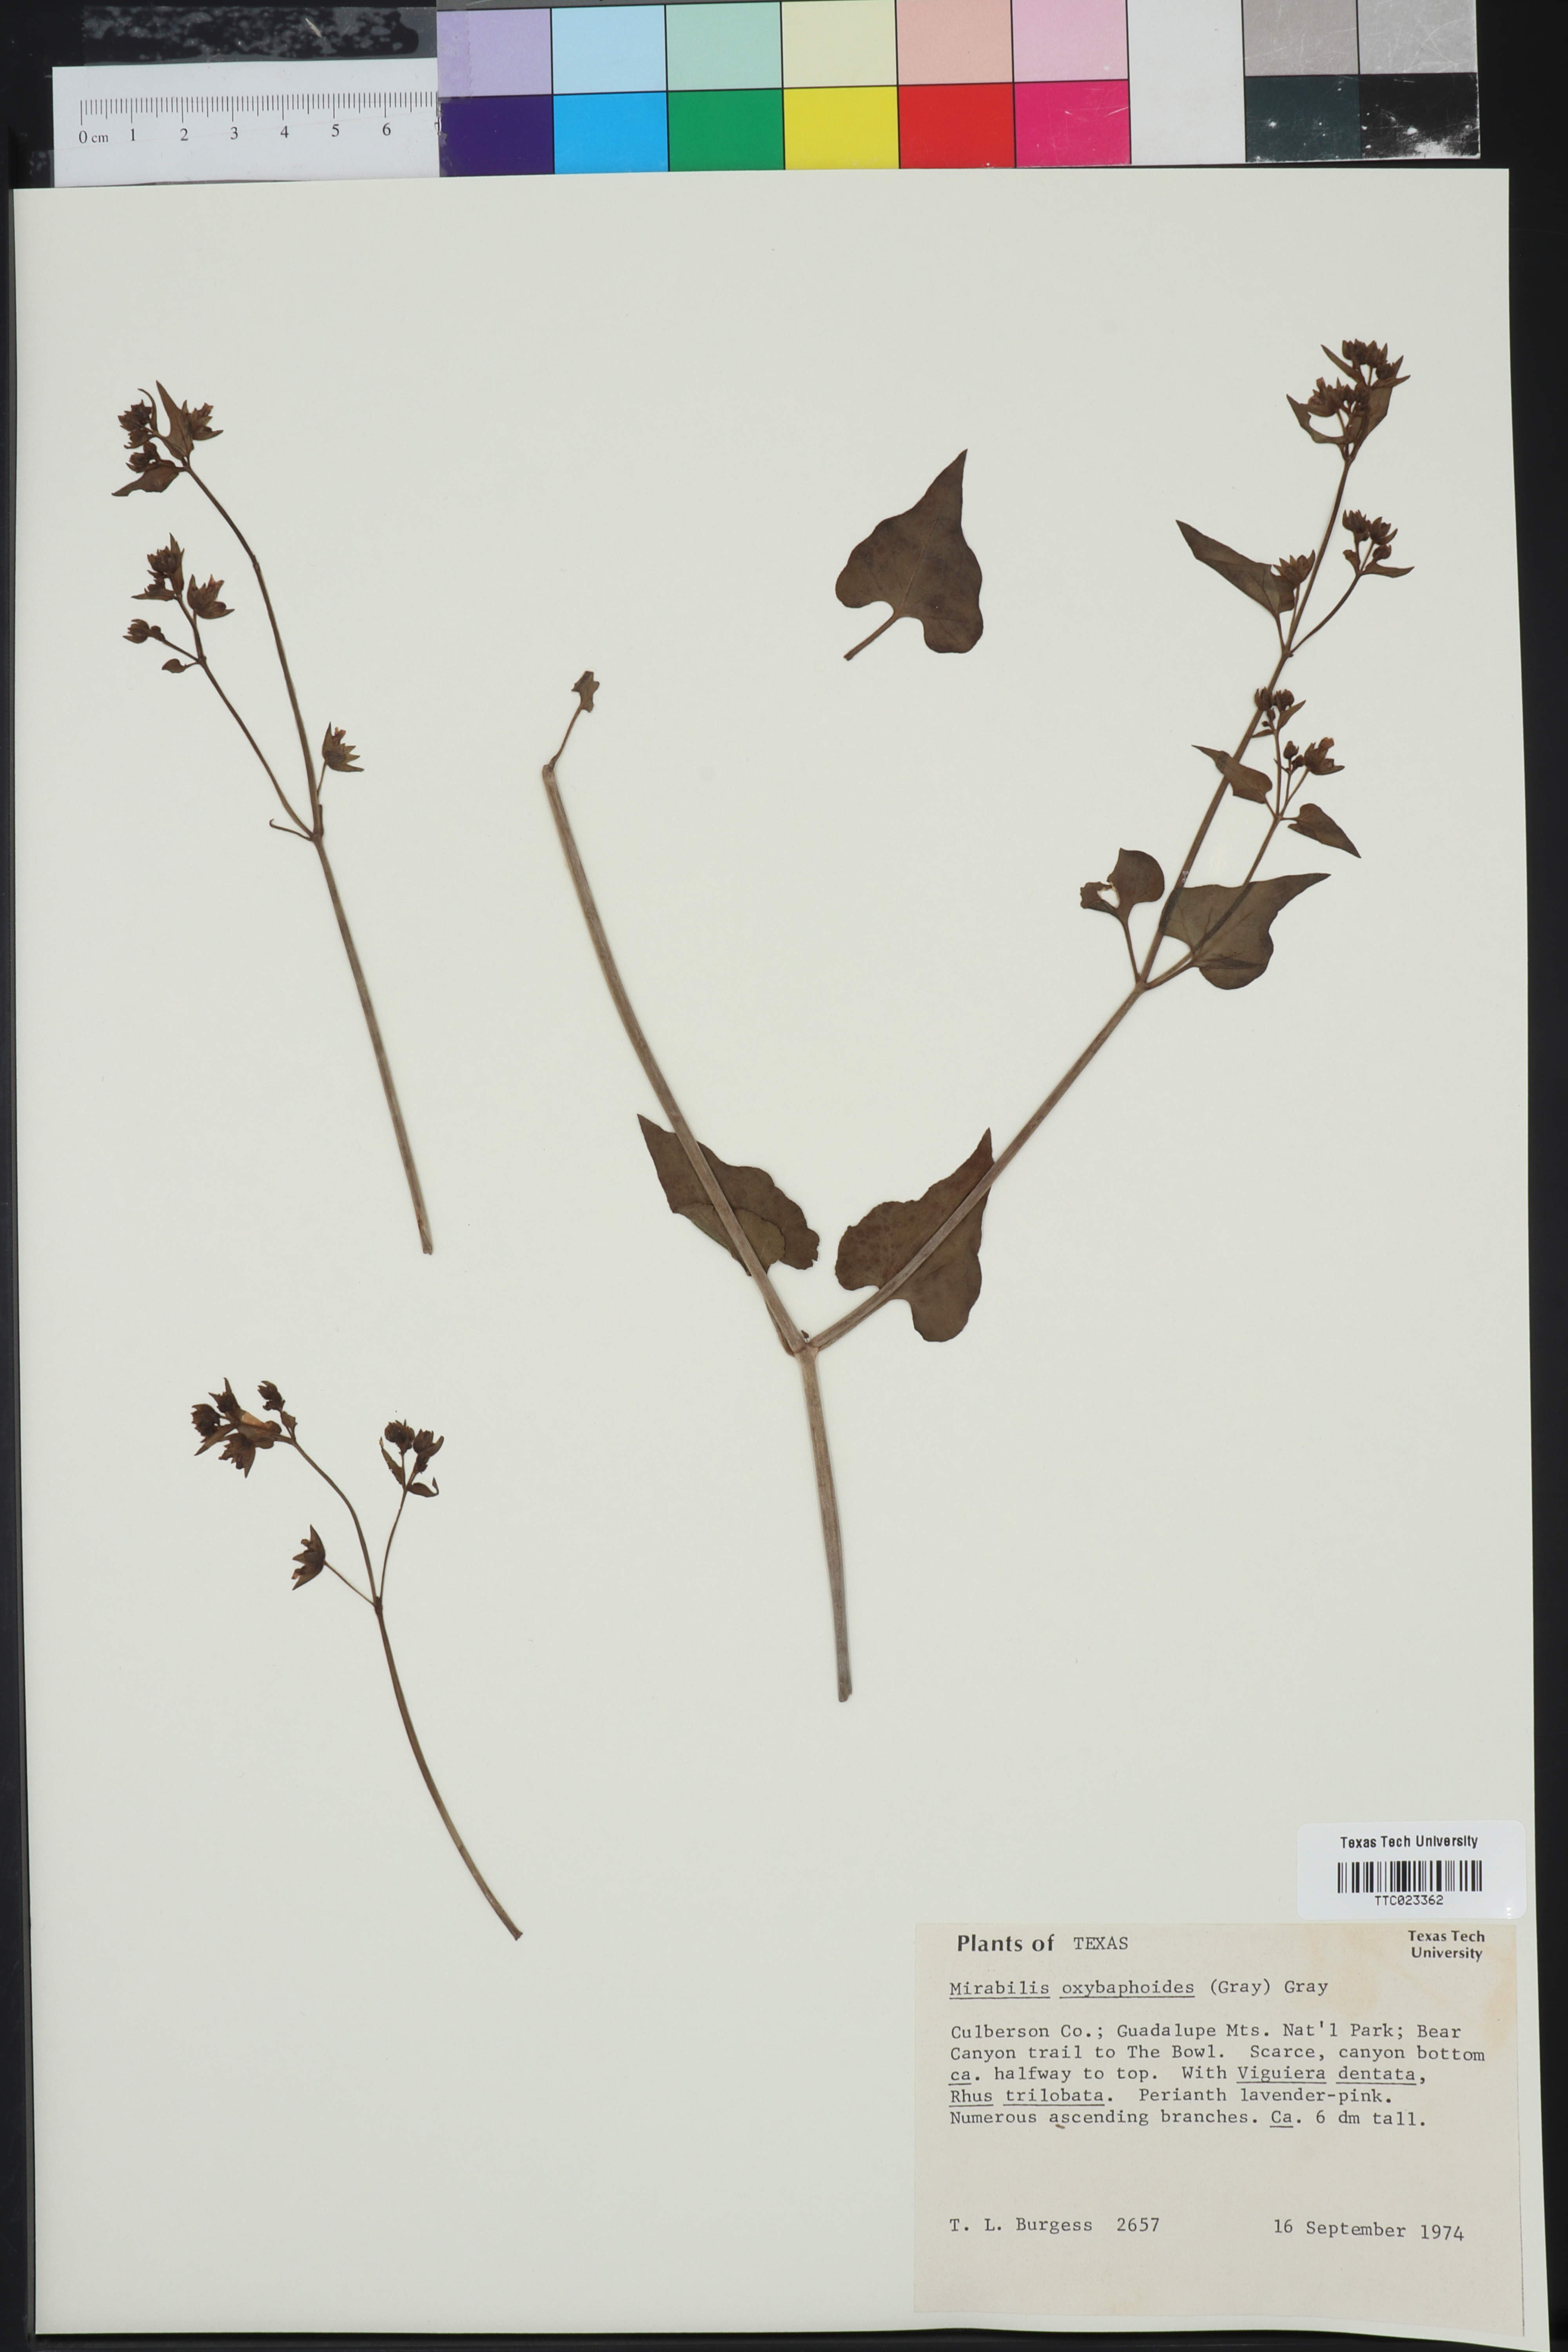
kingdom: Plantae
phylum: Tracheophyta
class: Magnoliopsida
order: Caryophyllales
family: Nyctaginaceae
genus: Mirabilis
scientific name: Mirabilis oxybaphoides
